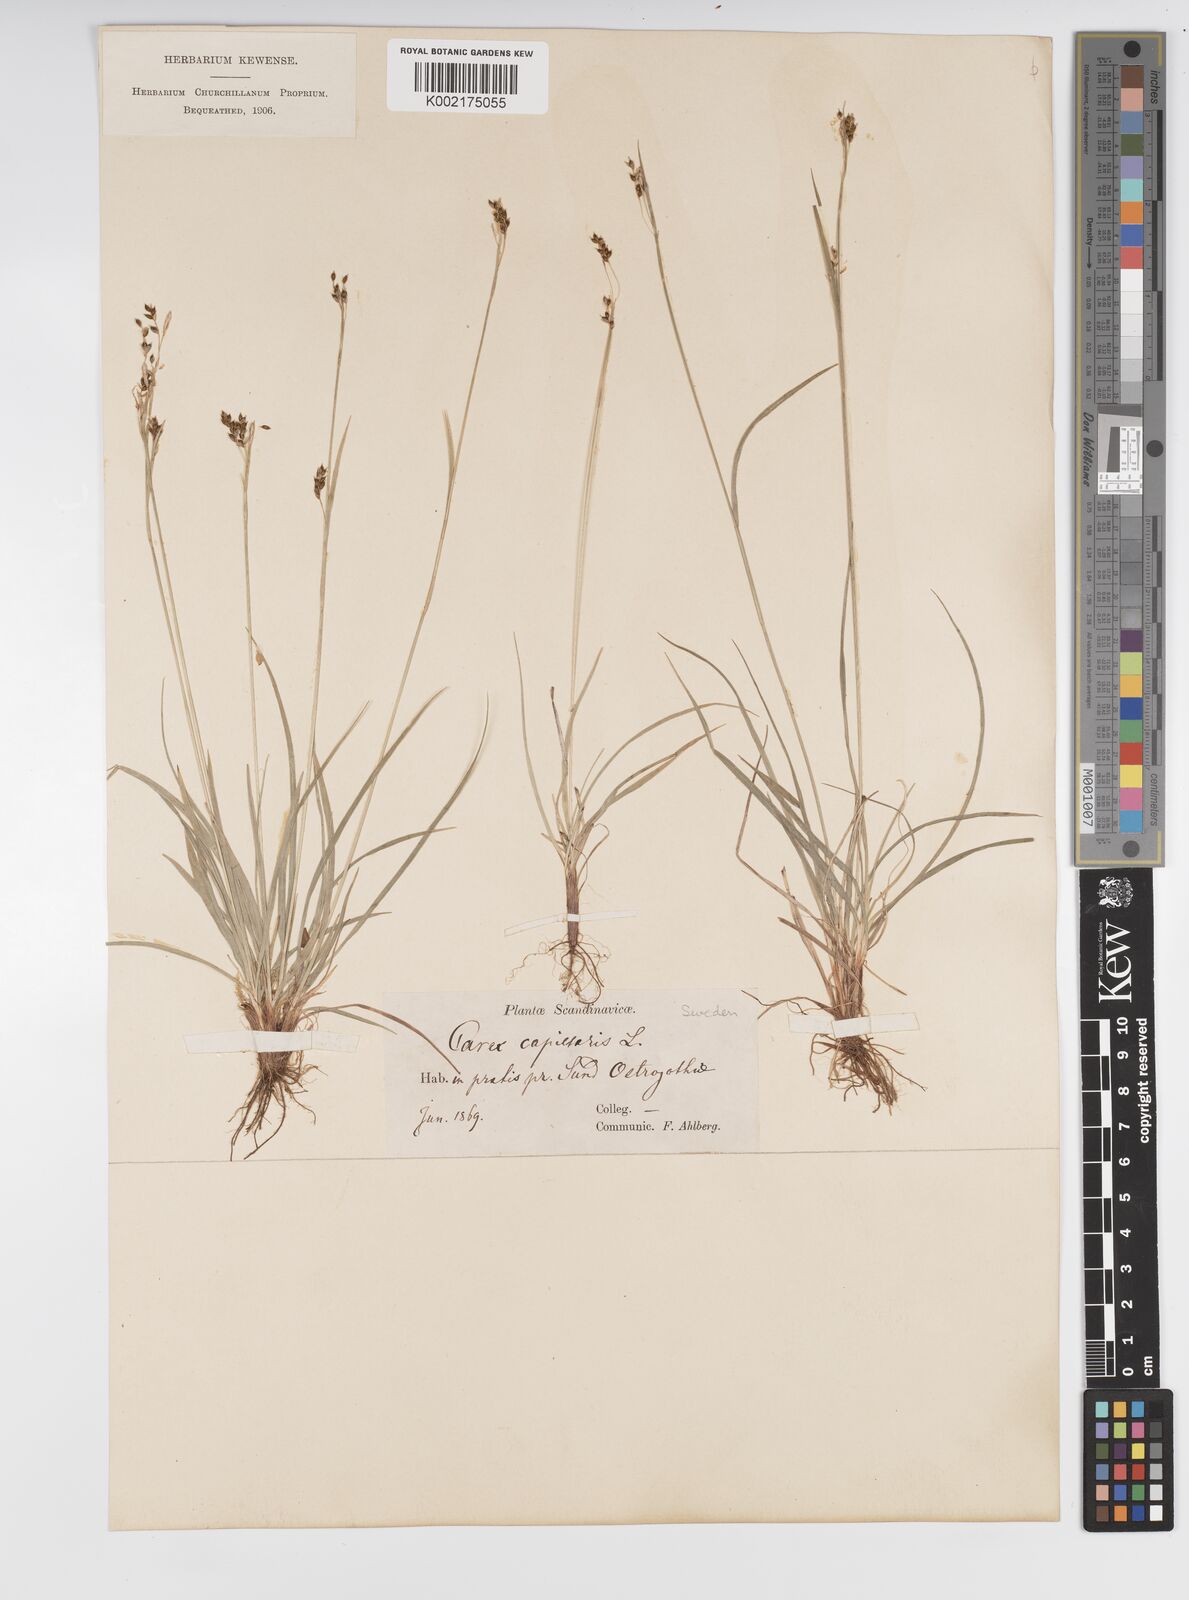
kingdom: Plantae
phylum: Tracheophyta
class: Liliopsida
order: Poales
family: Cyperaceae
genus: Carex
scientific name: Carex capillaris
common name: Hair sedge
